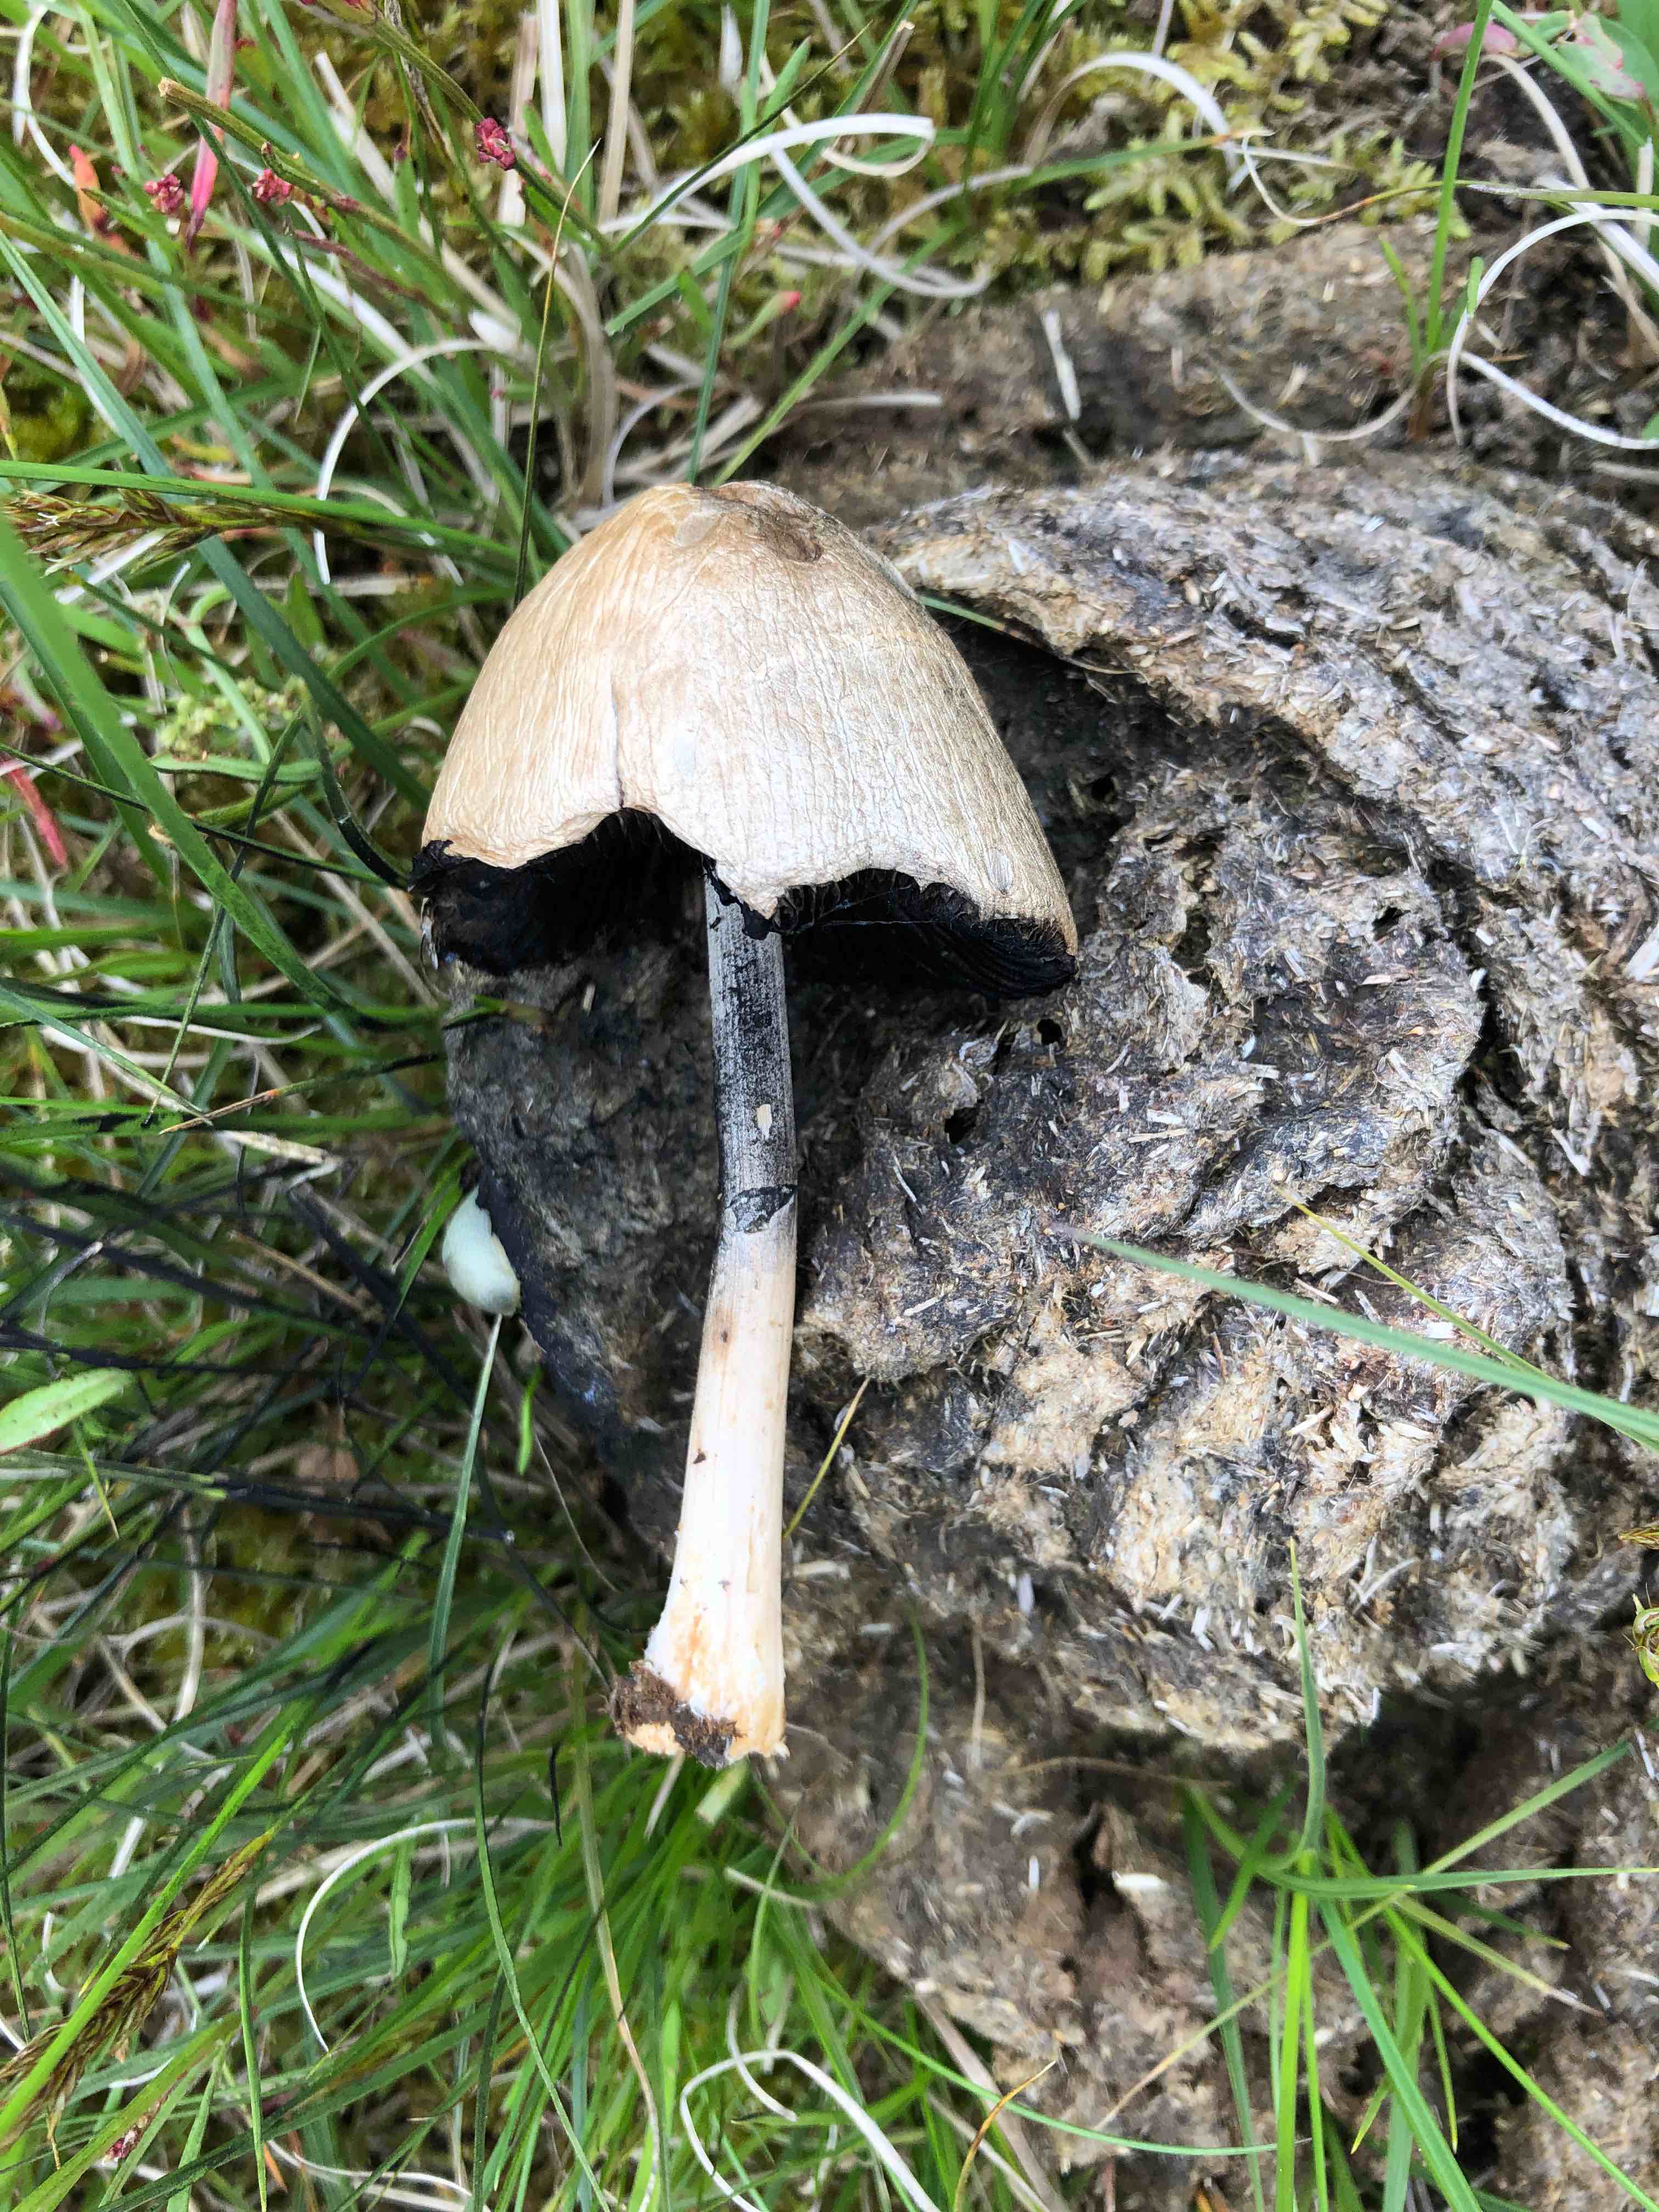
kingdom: Fungi
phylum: Basidiomycota
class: Agaricomycetes
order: Agaricales
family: Bolbitiaceae
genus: Panaeolus
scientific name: Panaeolus semiovatus
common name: ring-glanshat
